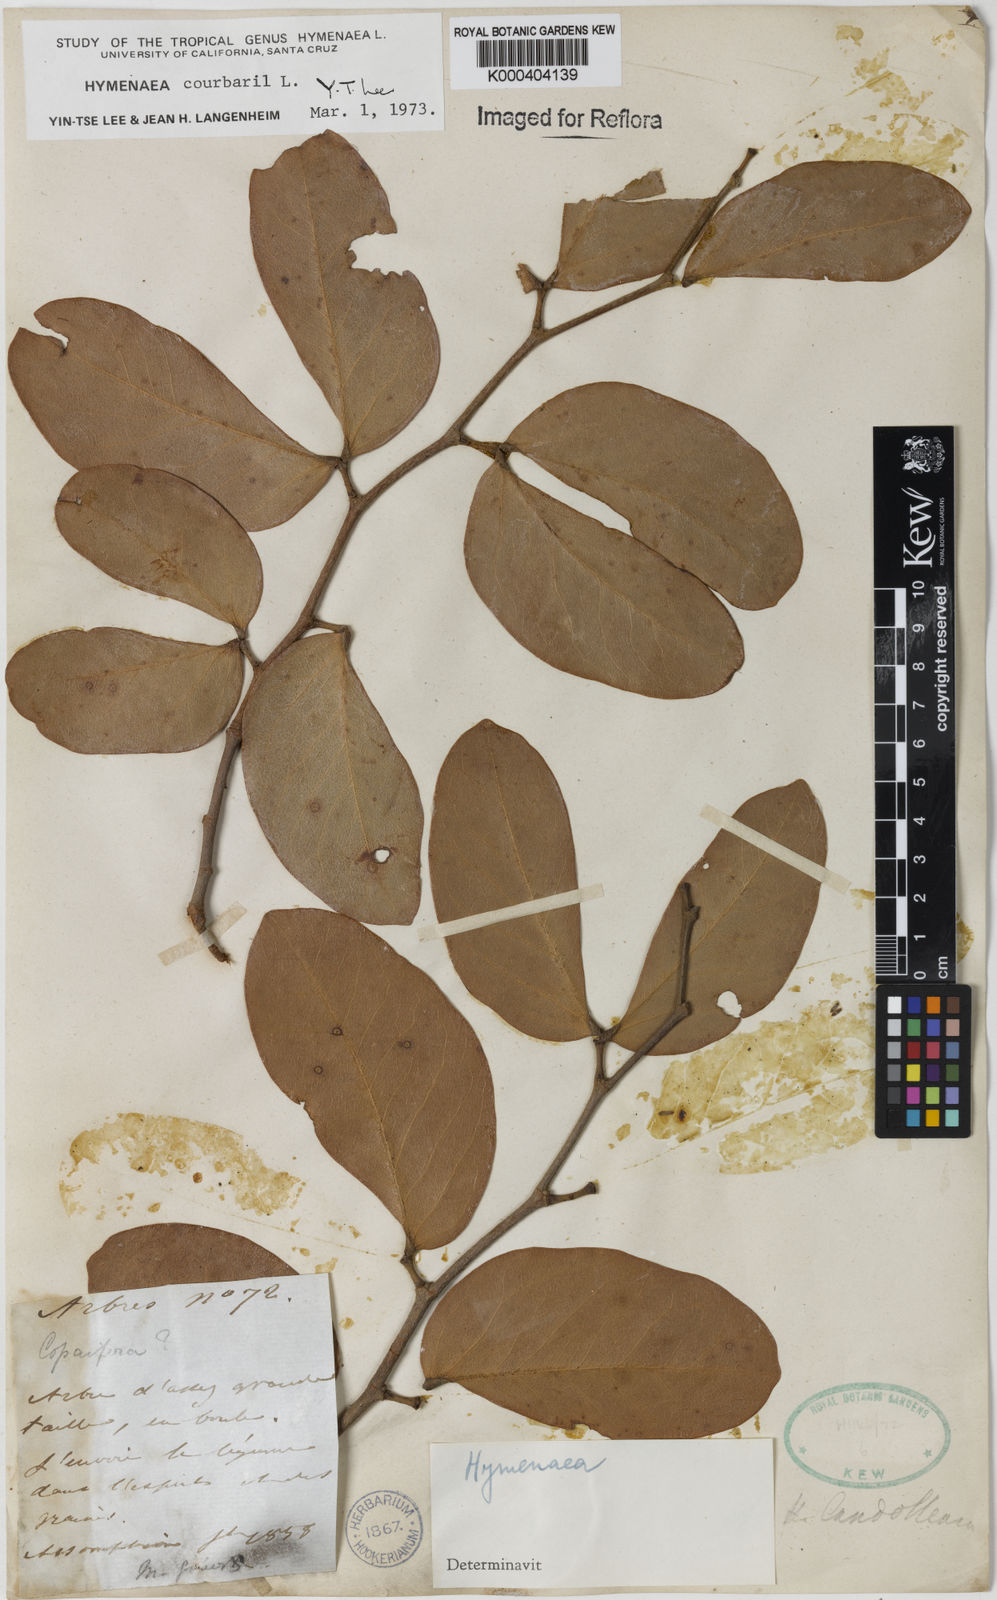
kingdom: Plantae
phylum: Tracheophyta
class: Magnoliopsida
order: Fabales
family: Fabaceae
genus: Hymenaea
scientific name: Hymenaea courbaril
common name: Brazilian copal
